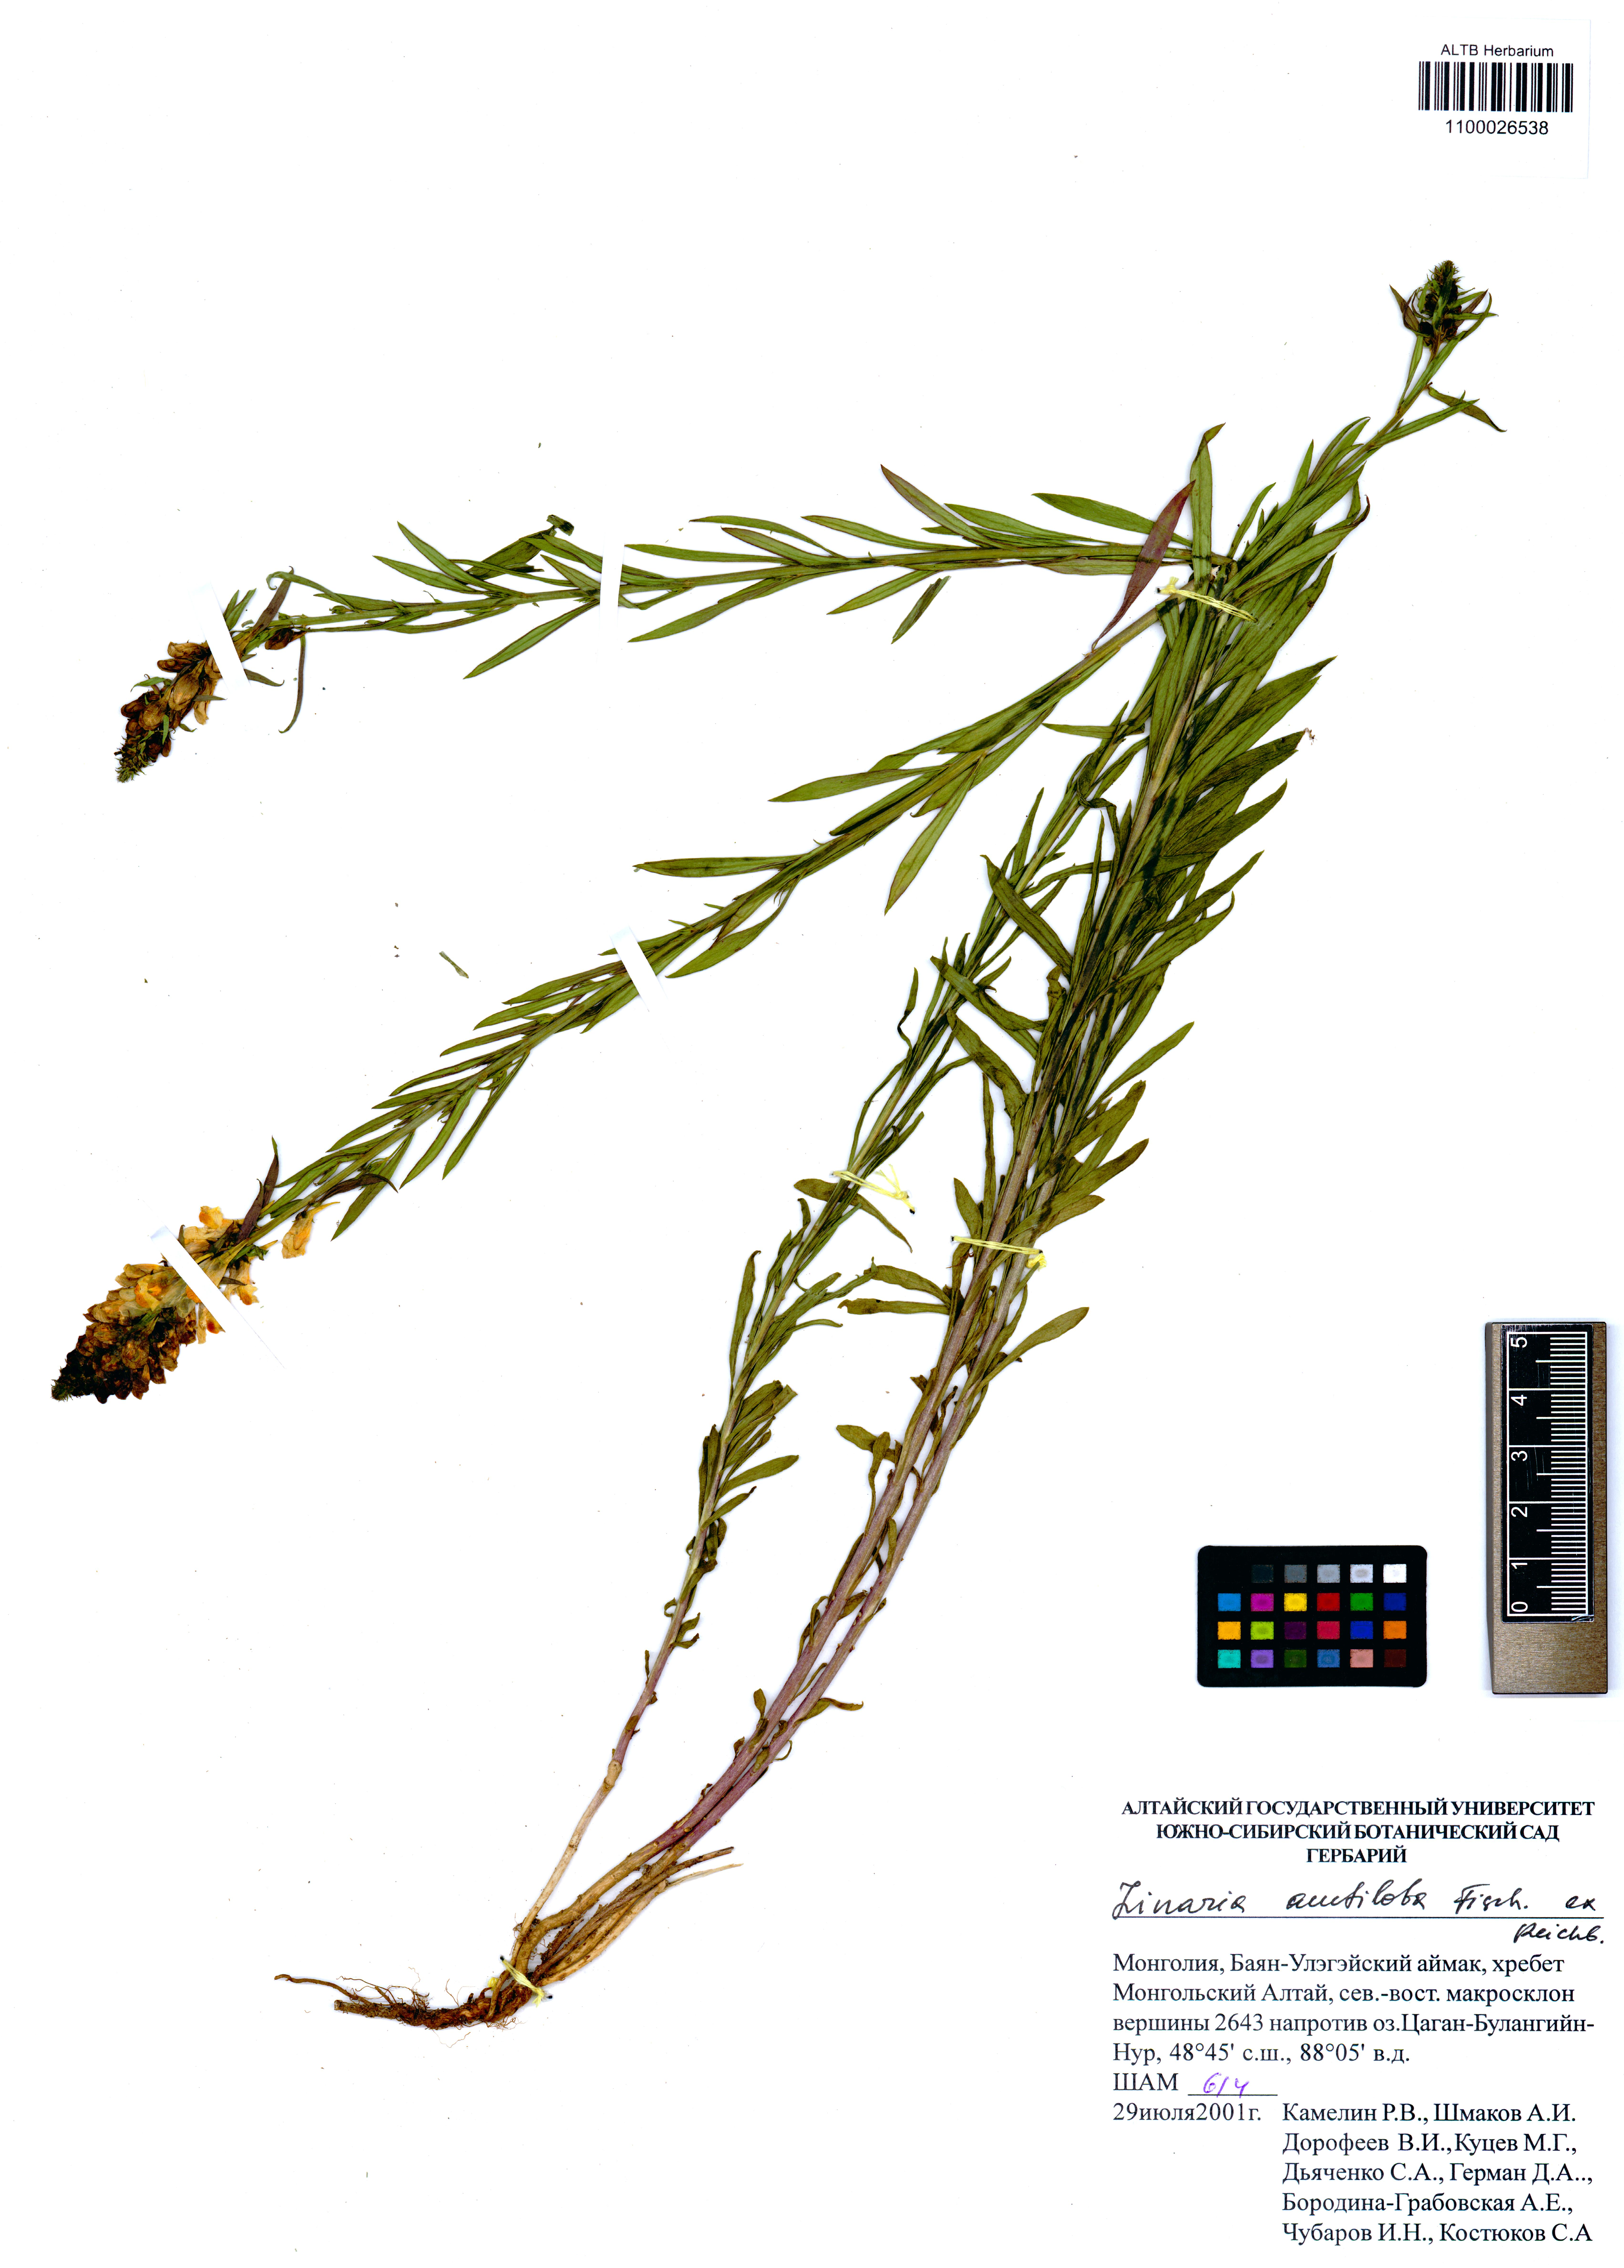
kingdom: Plantae
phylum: Tracheophyta
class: Magnoliopsida
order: Lamiales
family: Plantaginaceae
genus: Linaria
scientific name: Linaria acutiloba
